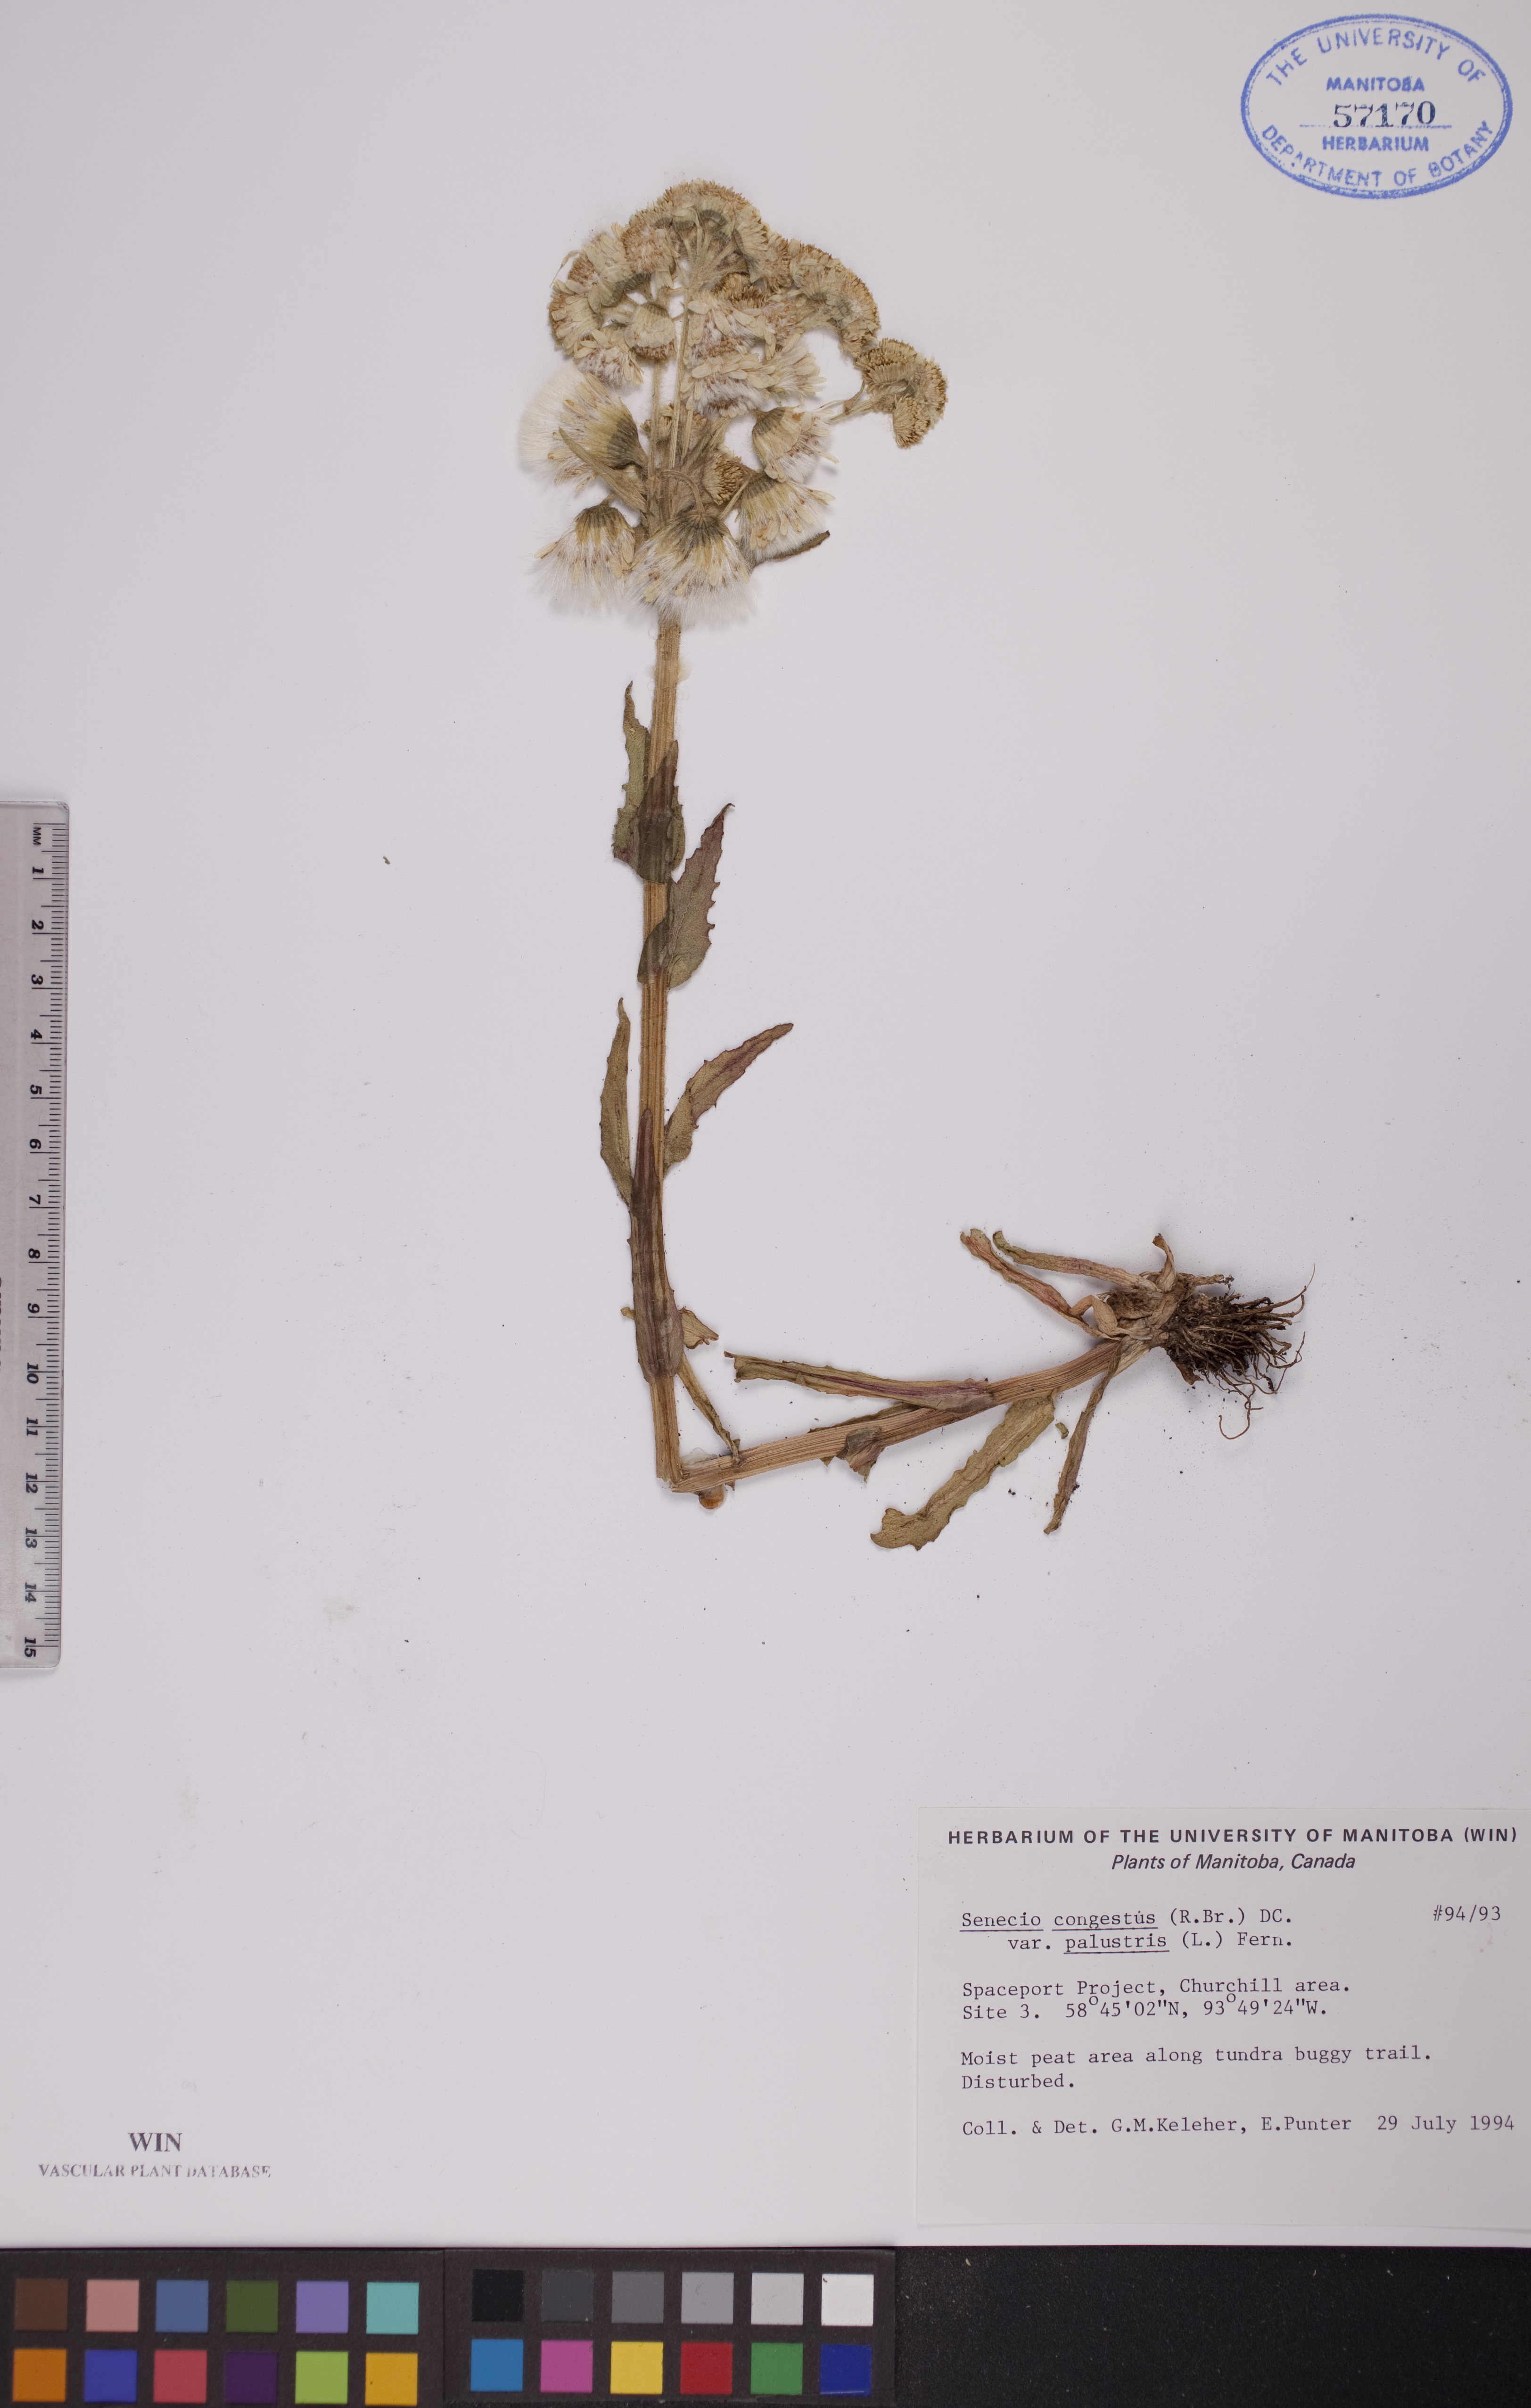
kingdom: Plantae
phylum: Tracheophyta
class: Magnoliopsida
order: Asterales
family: Asteraceae
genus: Tephroseris
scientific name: Tephroseris palustris
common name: Marsh fleawort
